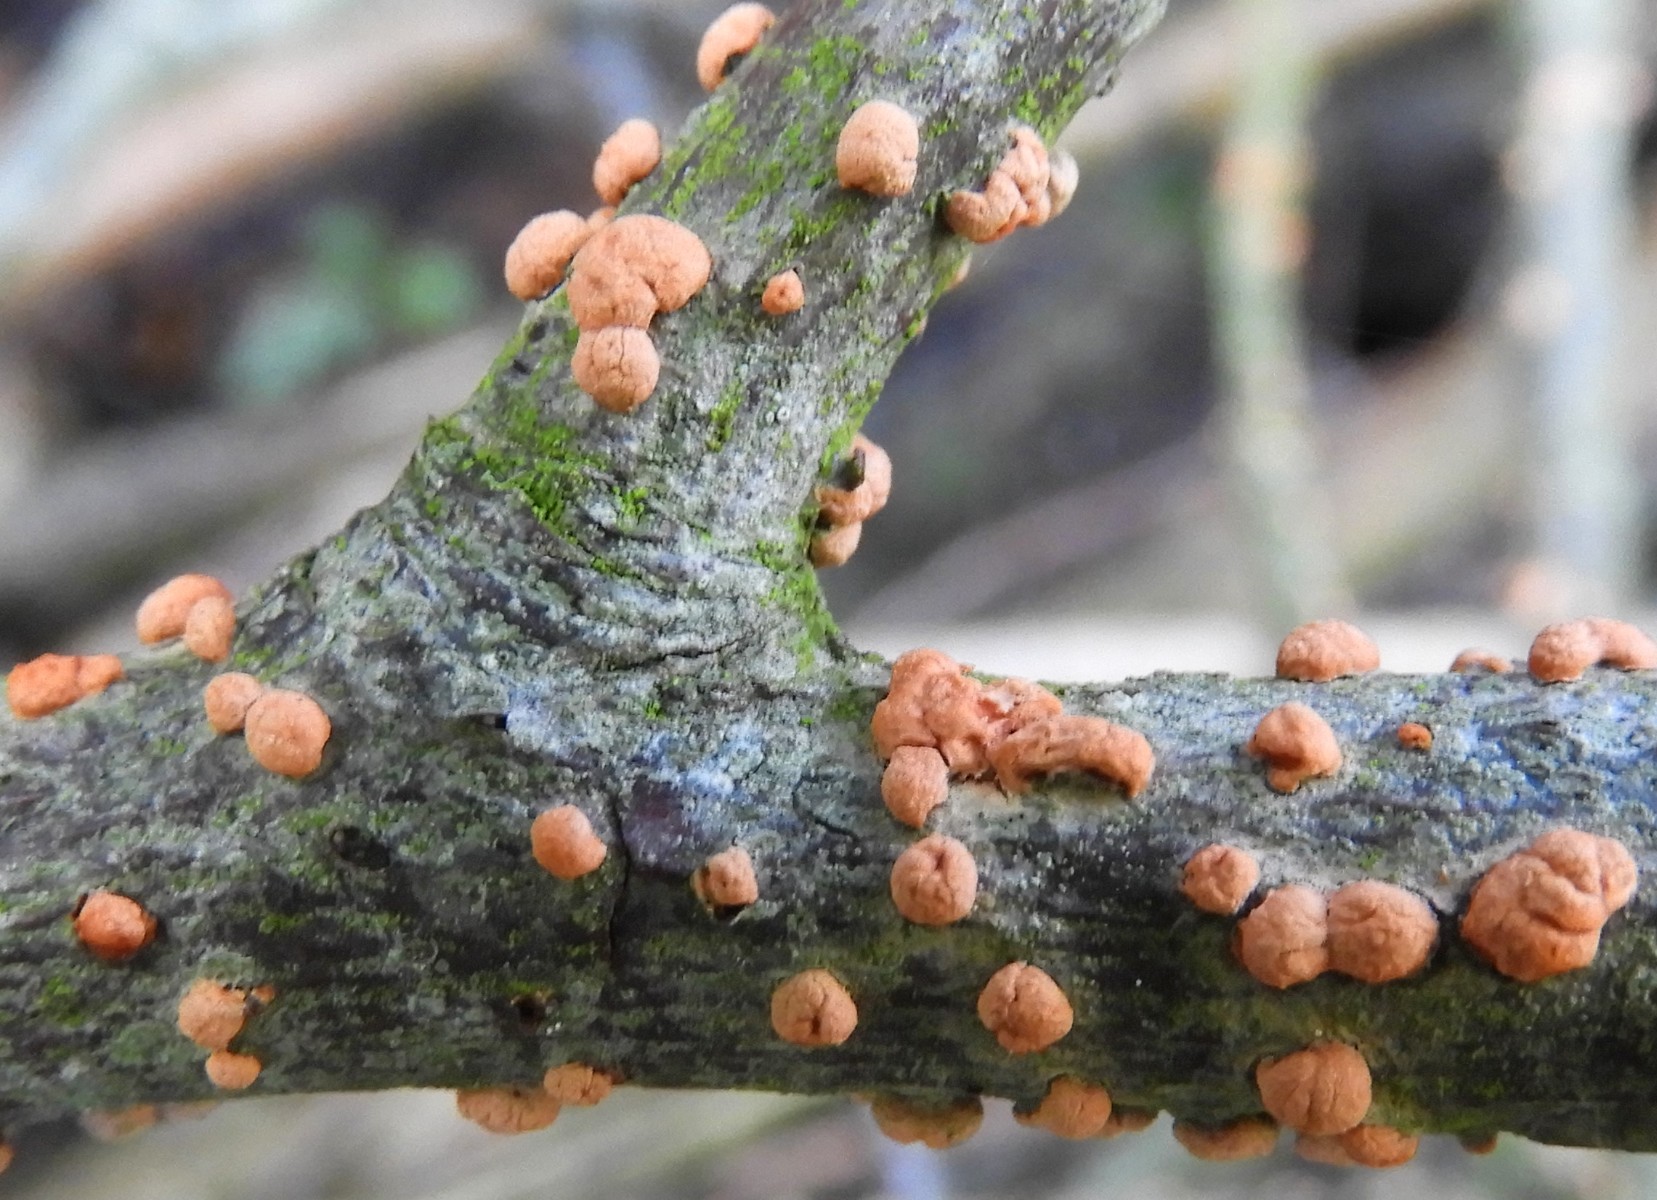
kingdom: Fungi
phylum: Ascomycota
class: Sordariomycetes
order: Hypocreales
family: Nectriaceae
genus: Nectria
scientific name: Nectria cinnabarina
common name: almindelig cinnobersvamp
